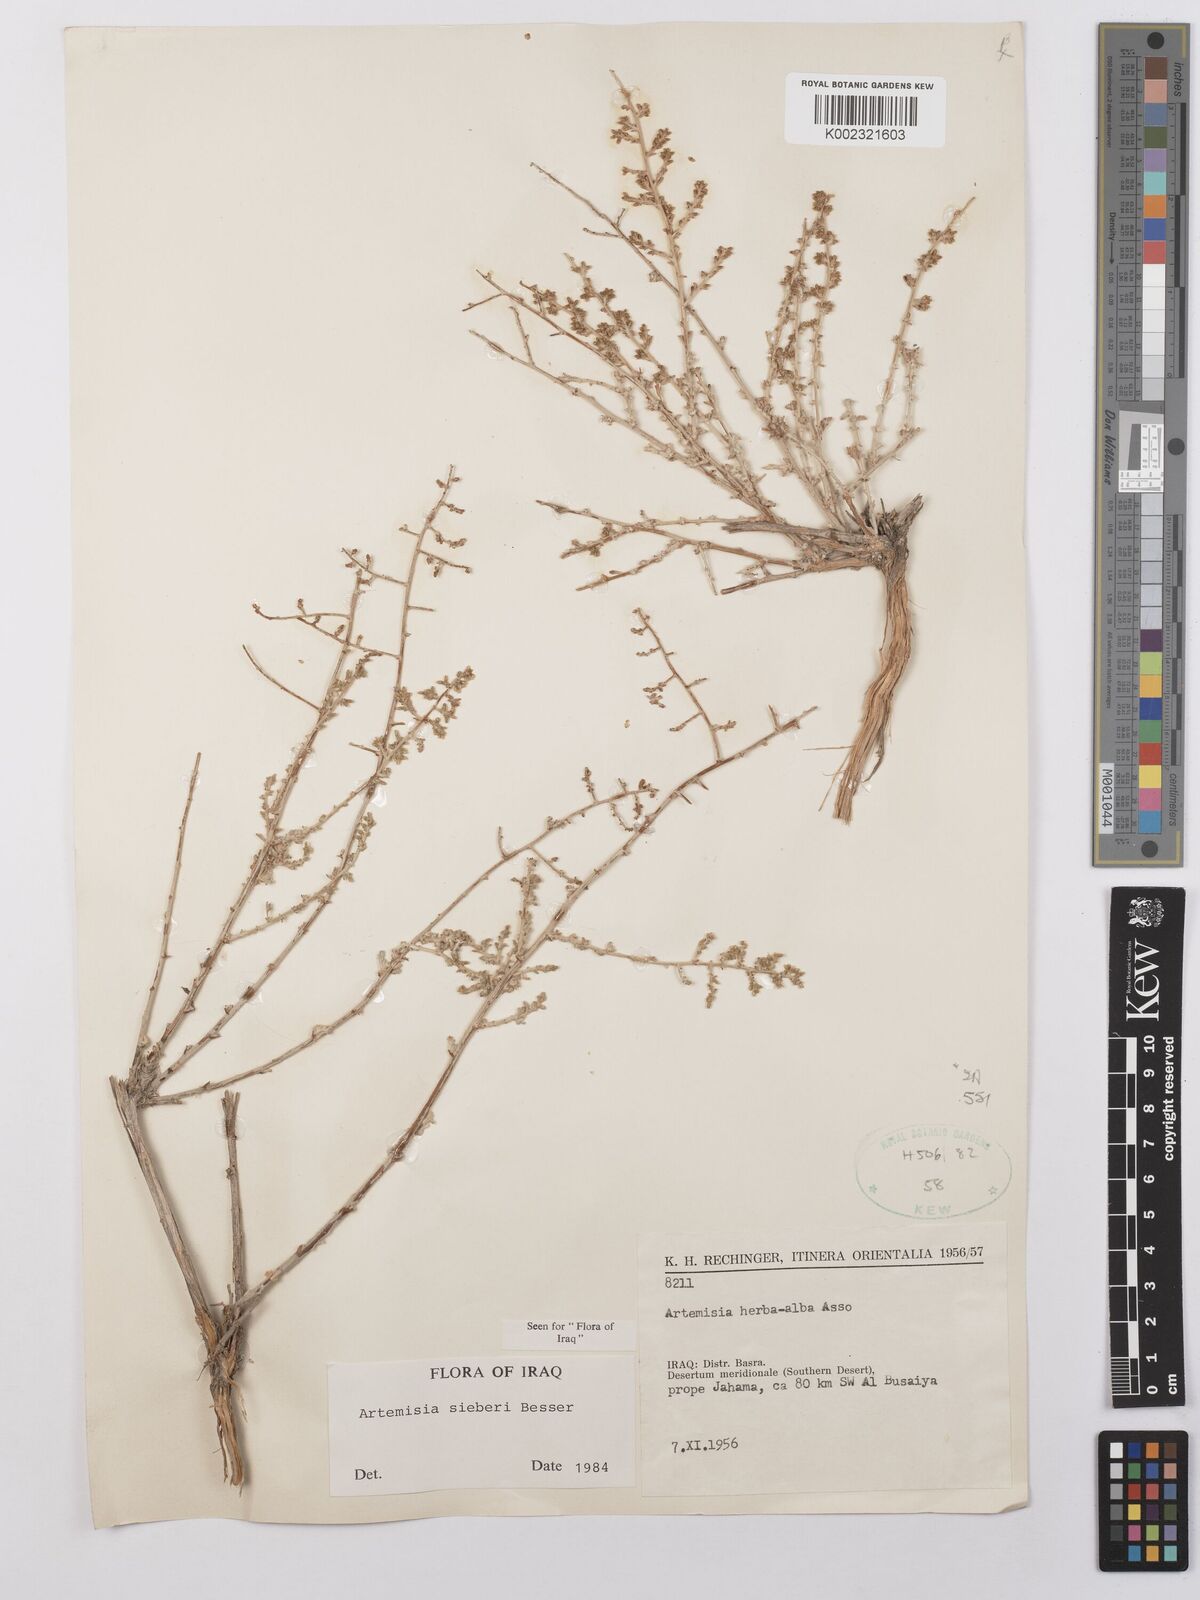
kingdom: Plantae
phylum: Tracheophyta
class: Magnoliopsida
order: Asterales
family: Asteraceae
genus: Artemisia
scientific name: Artemisia sieberi
